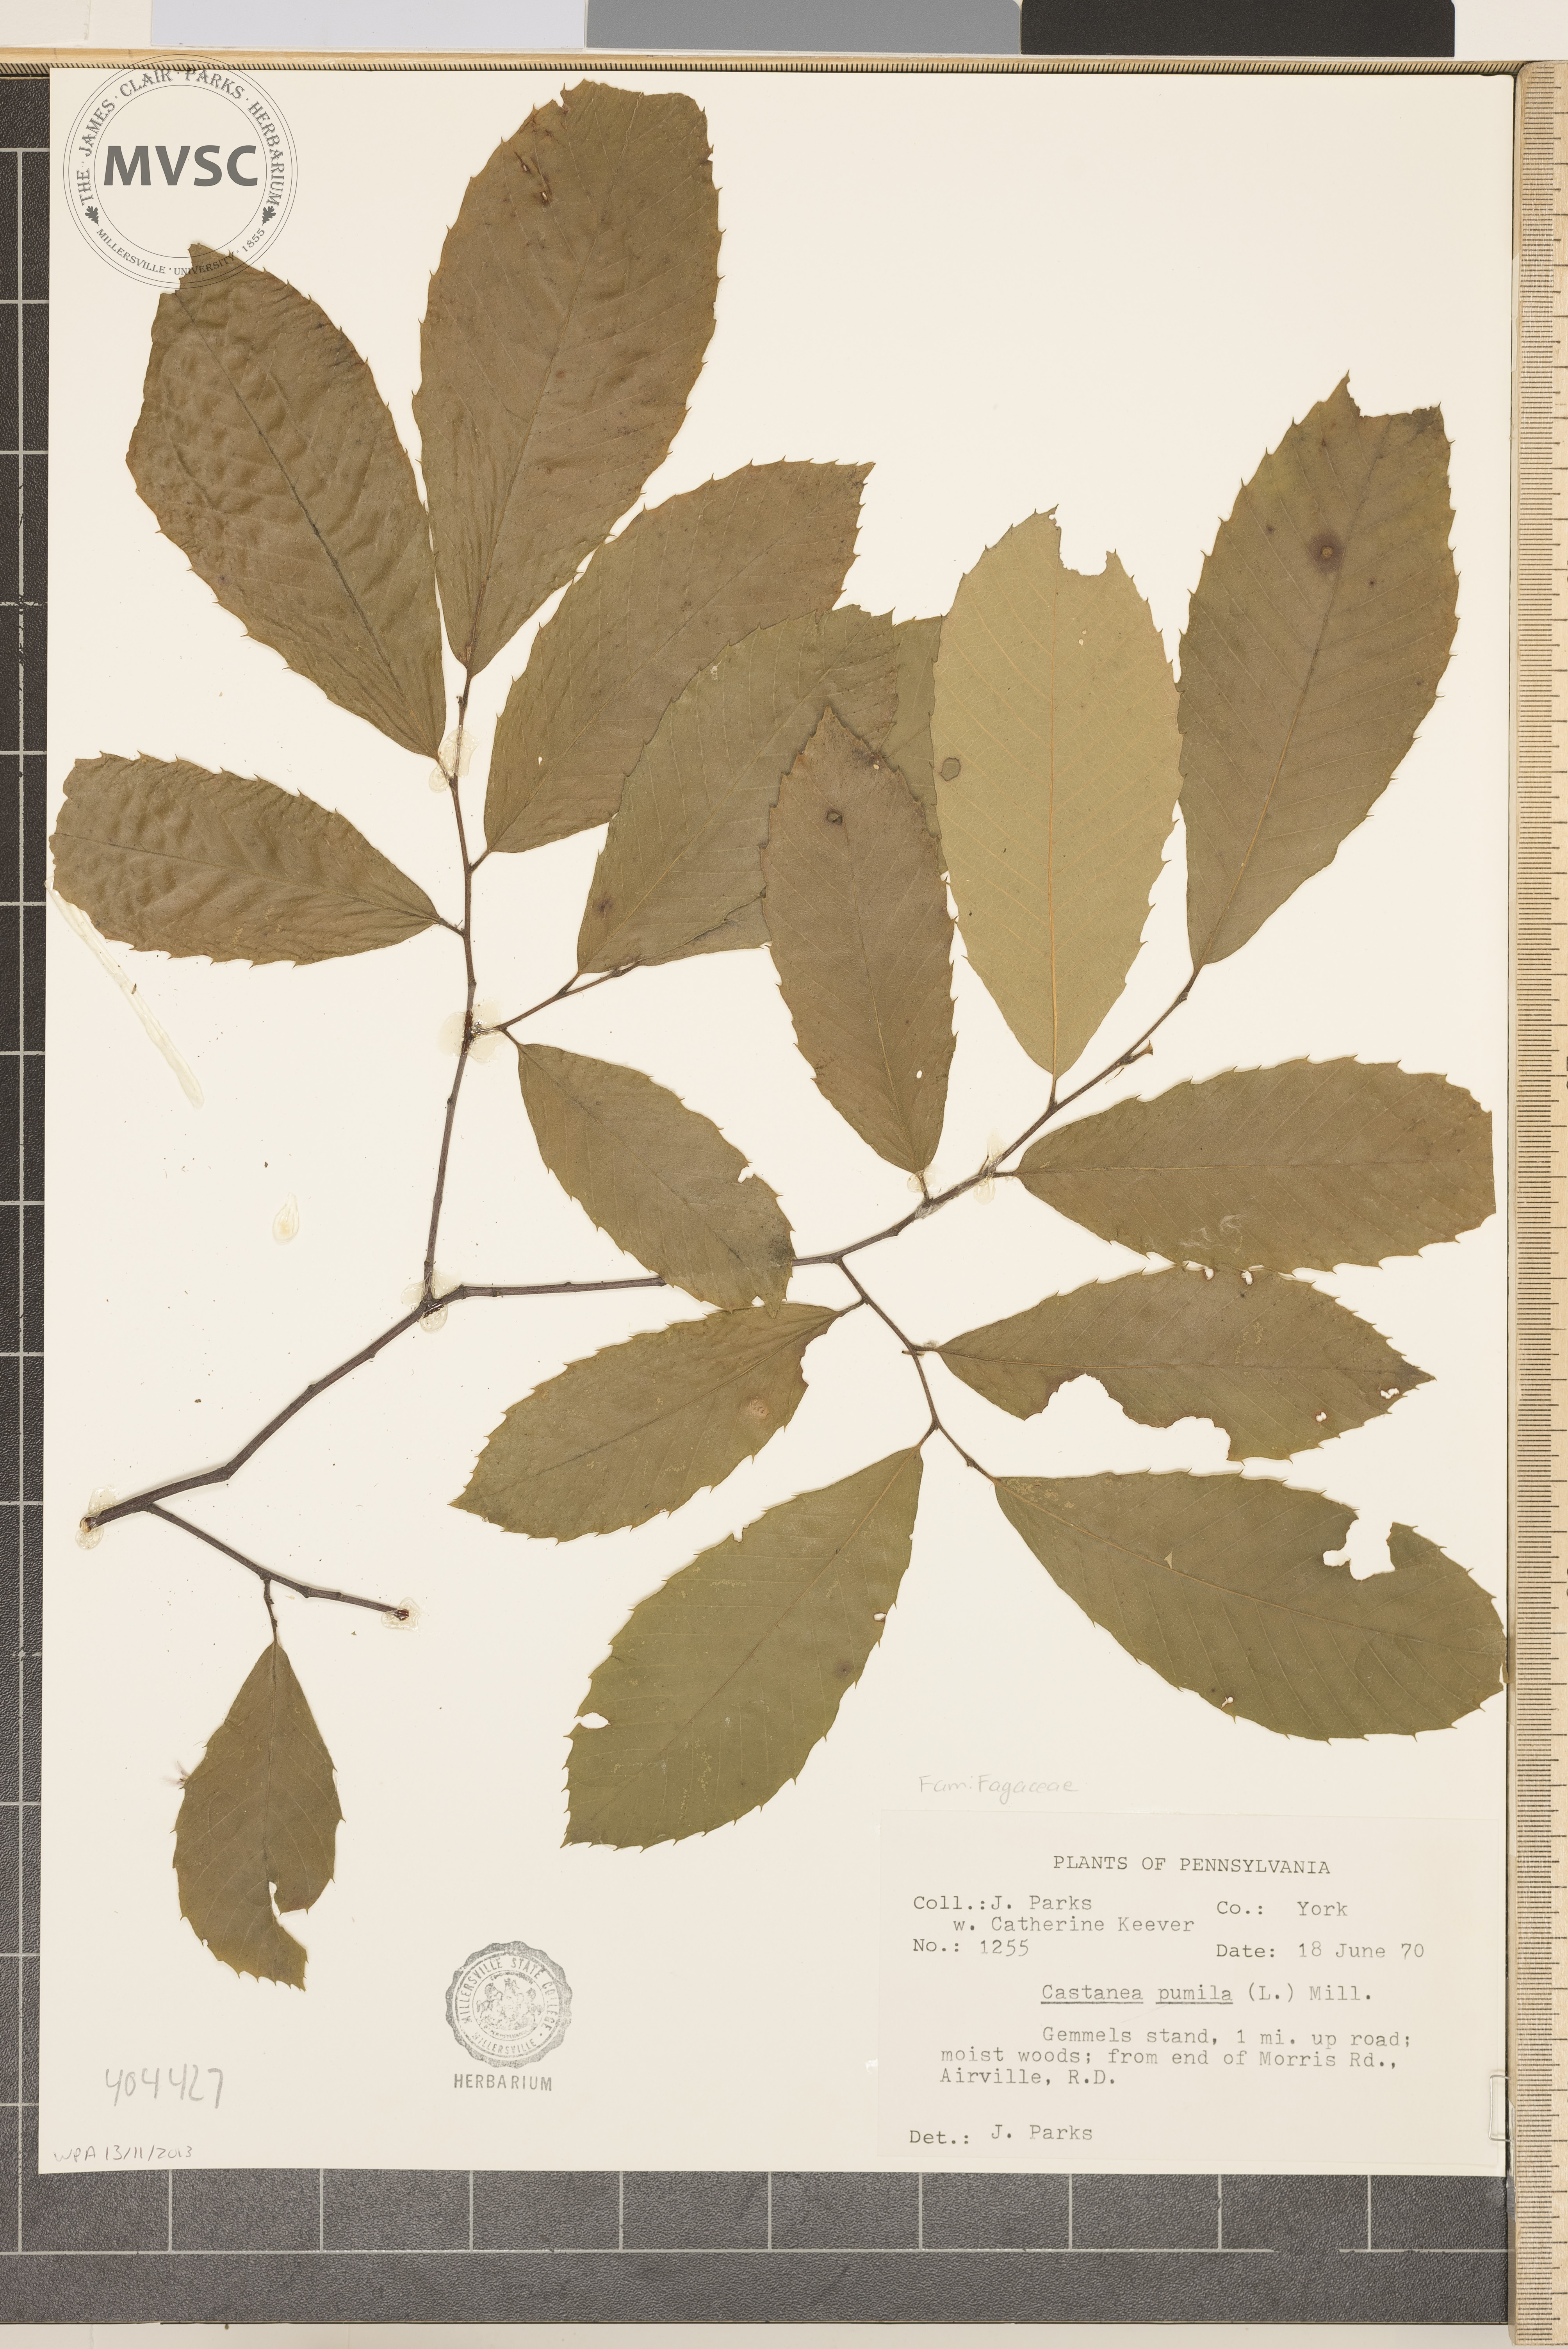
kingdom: Plantae
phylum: Tracheophyta
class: Magnoliopsida
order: Fagales
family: Fagaceae
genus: Castanea
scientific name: Castanea pumila
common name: Chinkapin
